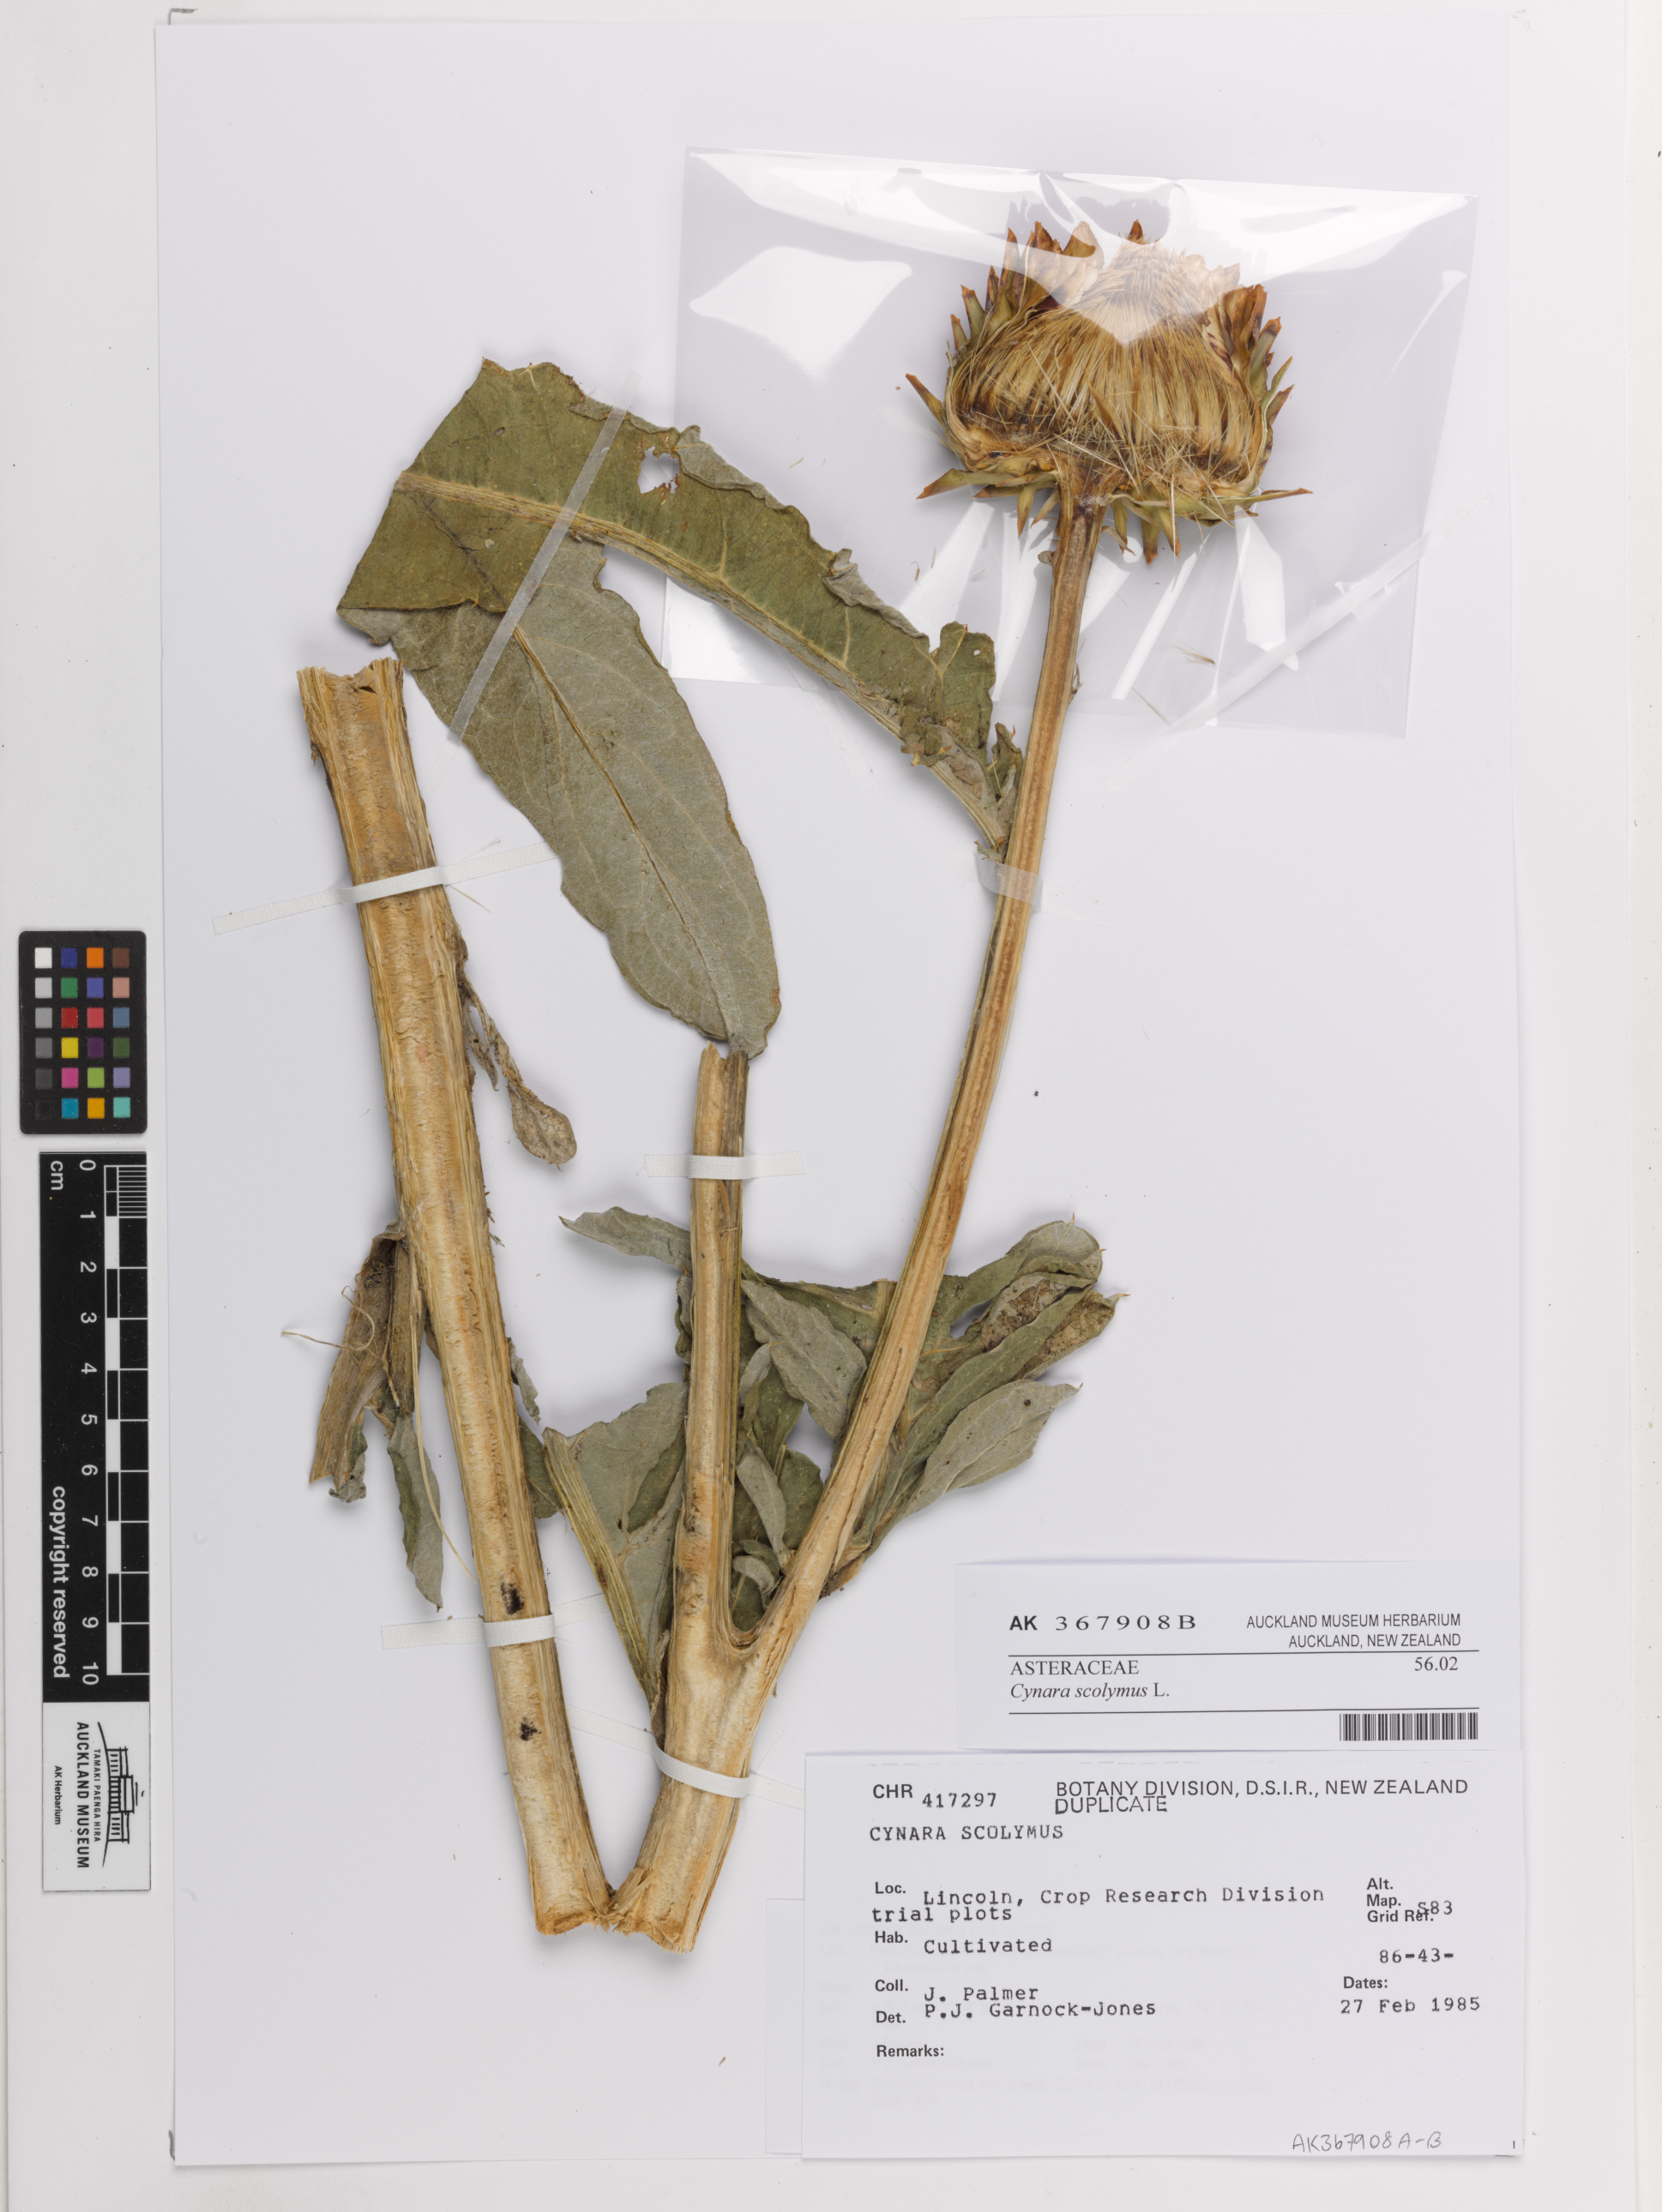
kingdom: Plantae
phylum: Tracheophyta
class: Magnoliopsida
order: Asterales
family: Asteraceae
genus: Cynara
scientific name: Cynara scolymus
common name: Globe artichoke
